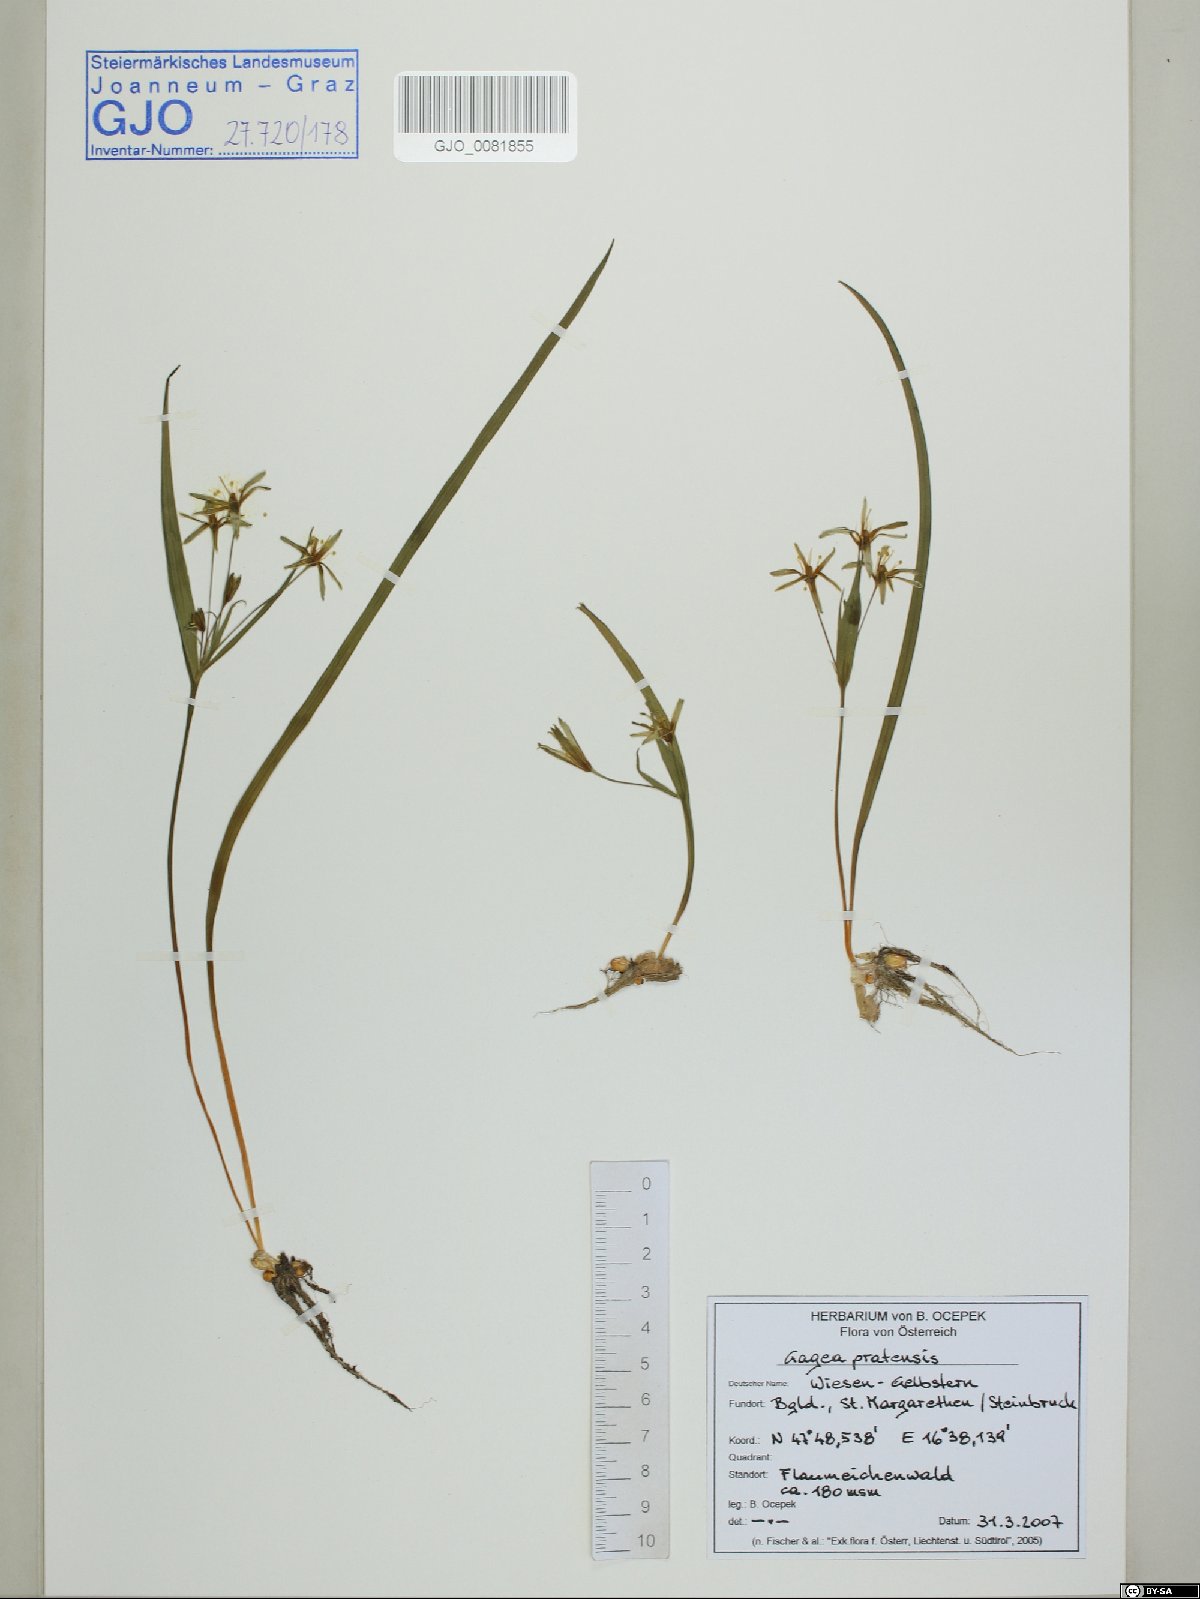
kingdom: Plantae
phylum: Tracheophyta
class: Liliopsida
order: Liliales
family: Liliaceae
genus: Gagea
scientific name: Gagea pratensis
